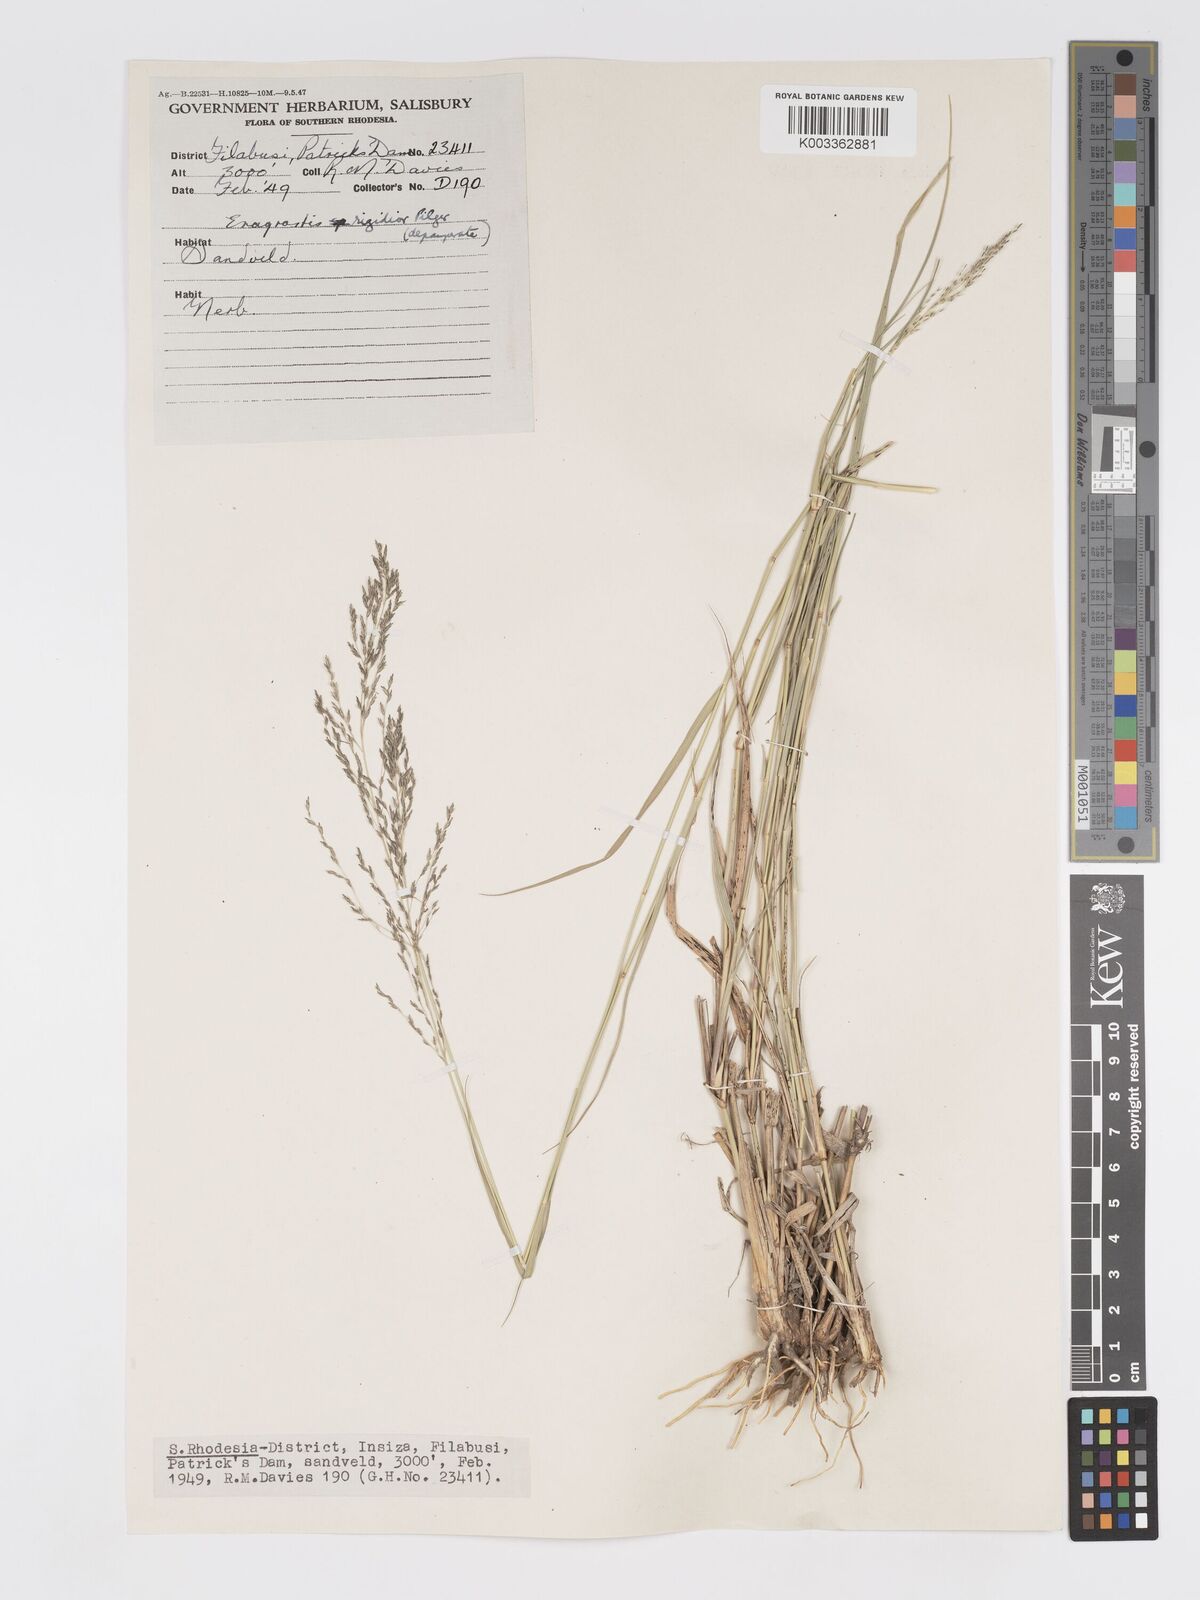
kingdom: Plantae
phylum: Tracheophyta
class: Liliopsida
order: Poales
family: Poaceae
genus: Eragrostis
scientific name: Eragrostis cylindriflora
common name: Cylinderflower lovegrass
